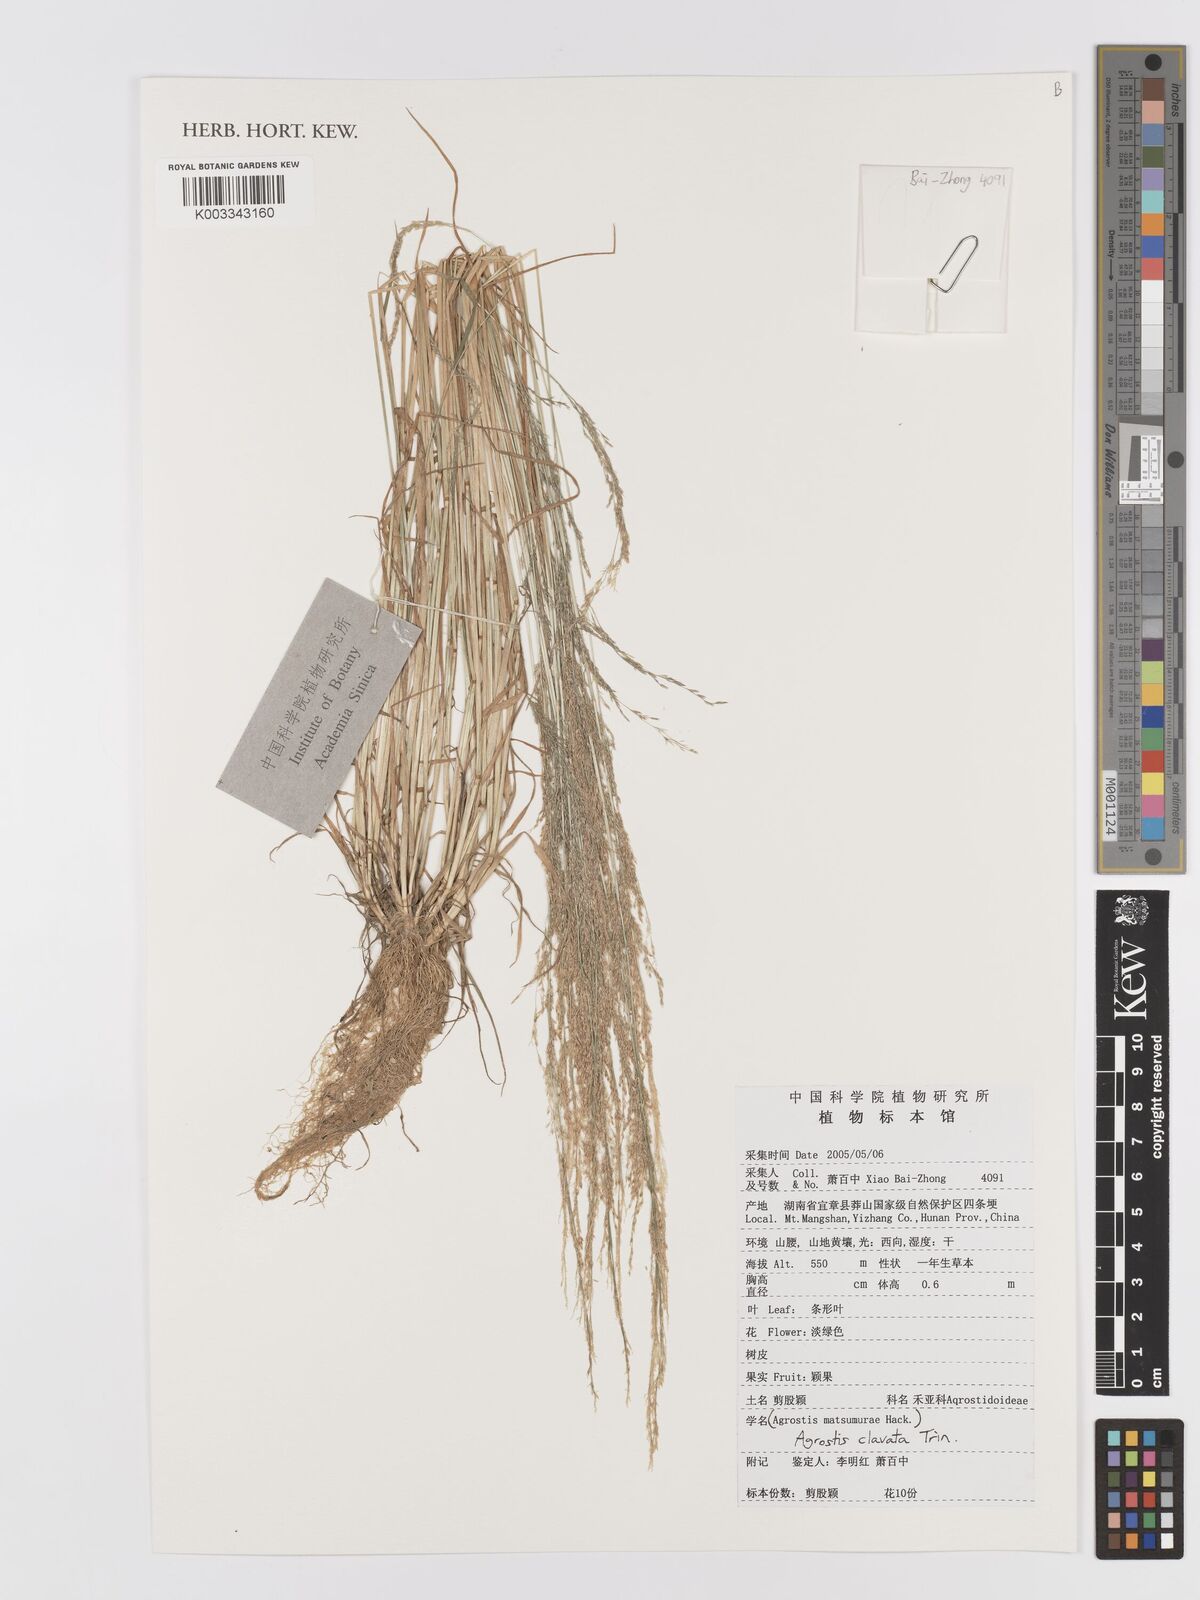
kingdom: Plantae
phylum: Tracheophyta
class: Liliopsida
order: Poales
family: Poaceae
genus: Agrostis
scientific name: Agrostis clavata
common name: Clavate bent
